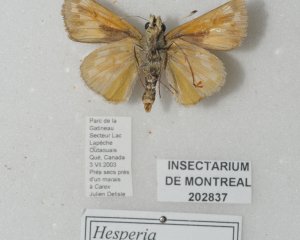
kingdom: Animalia
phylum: Arthropoda
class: Insecta
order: Lepidoptera
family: Hesperiidae
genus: Hesperia
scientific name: Hesperia sassacus
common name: Sassacus Skipper
